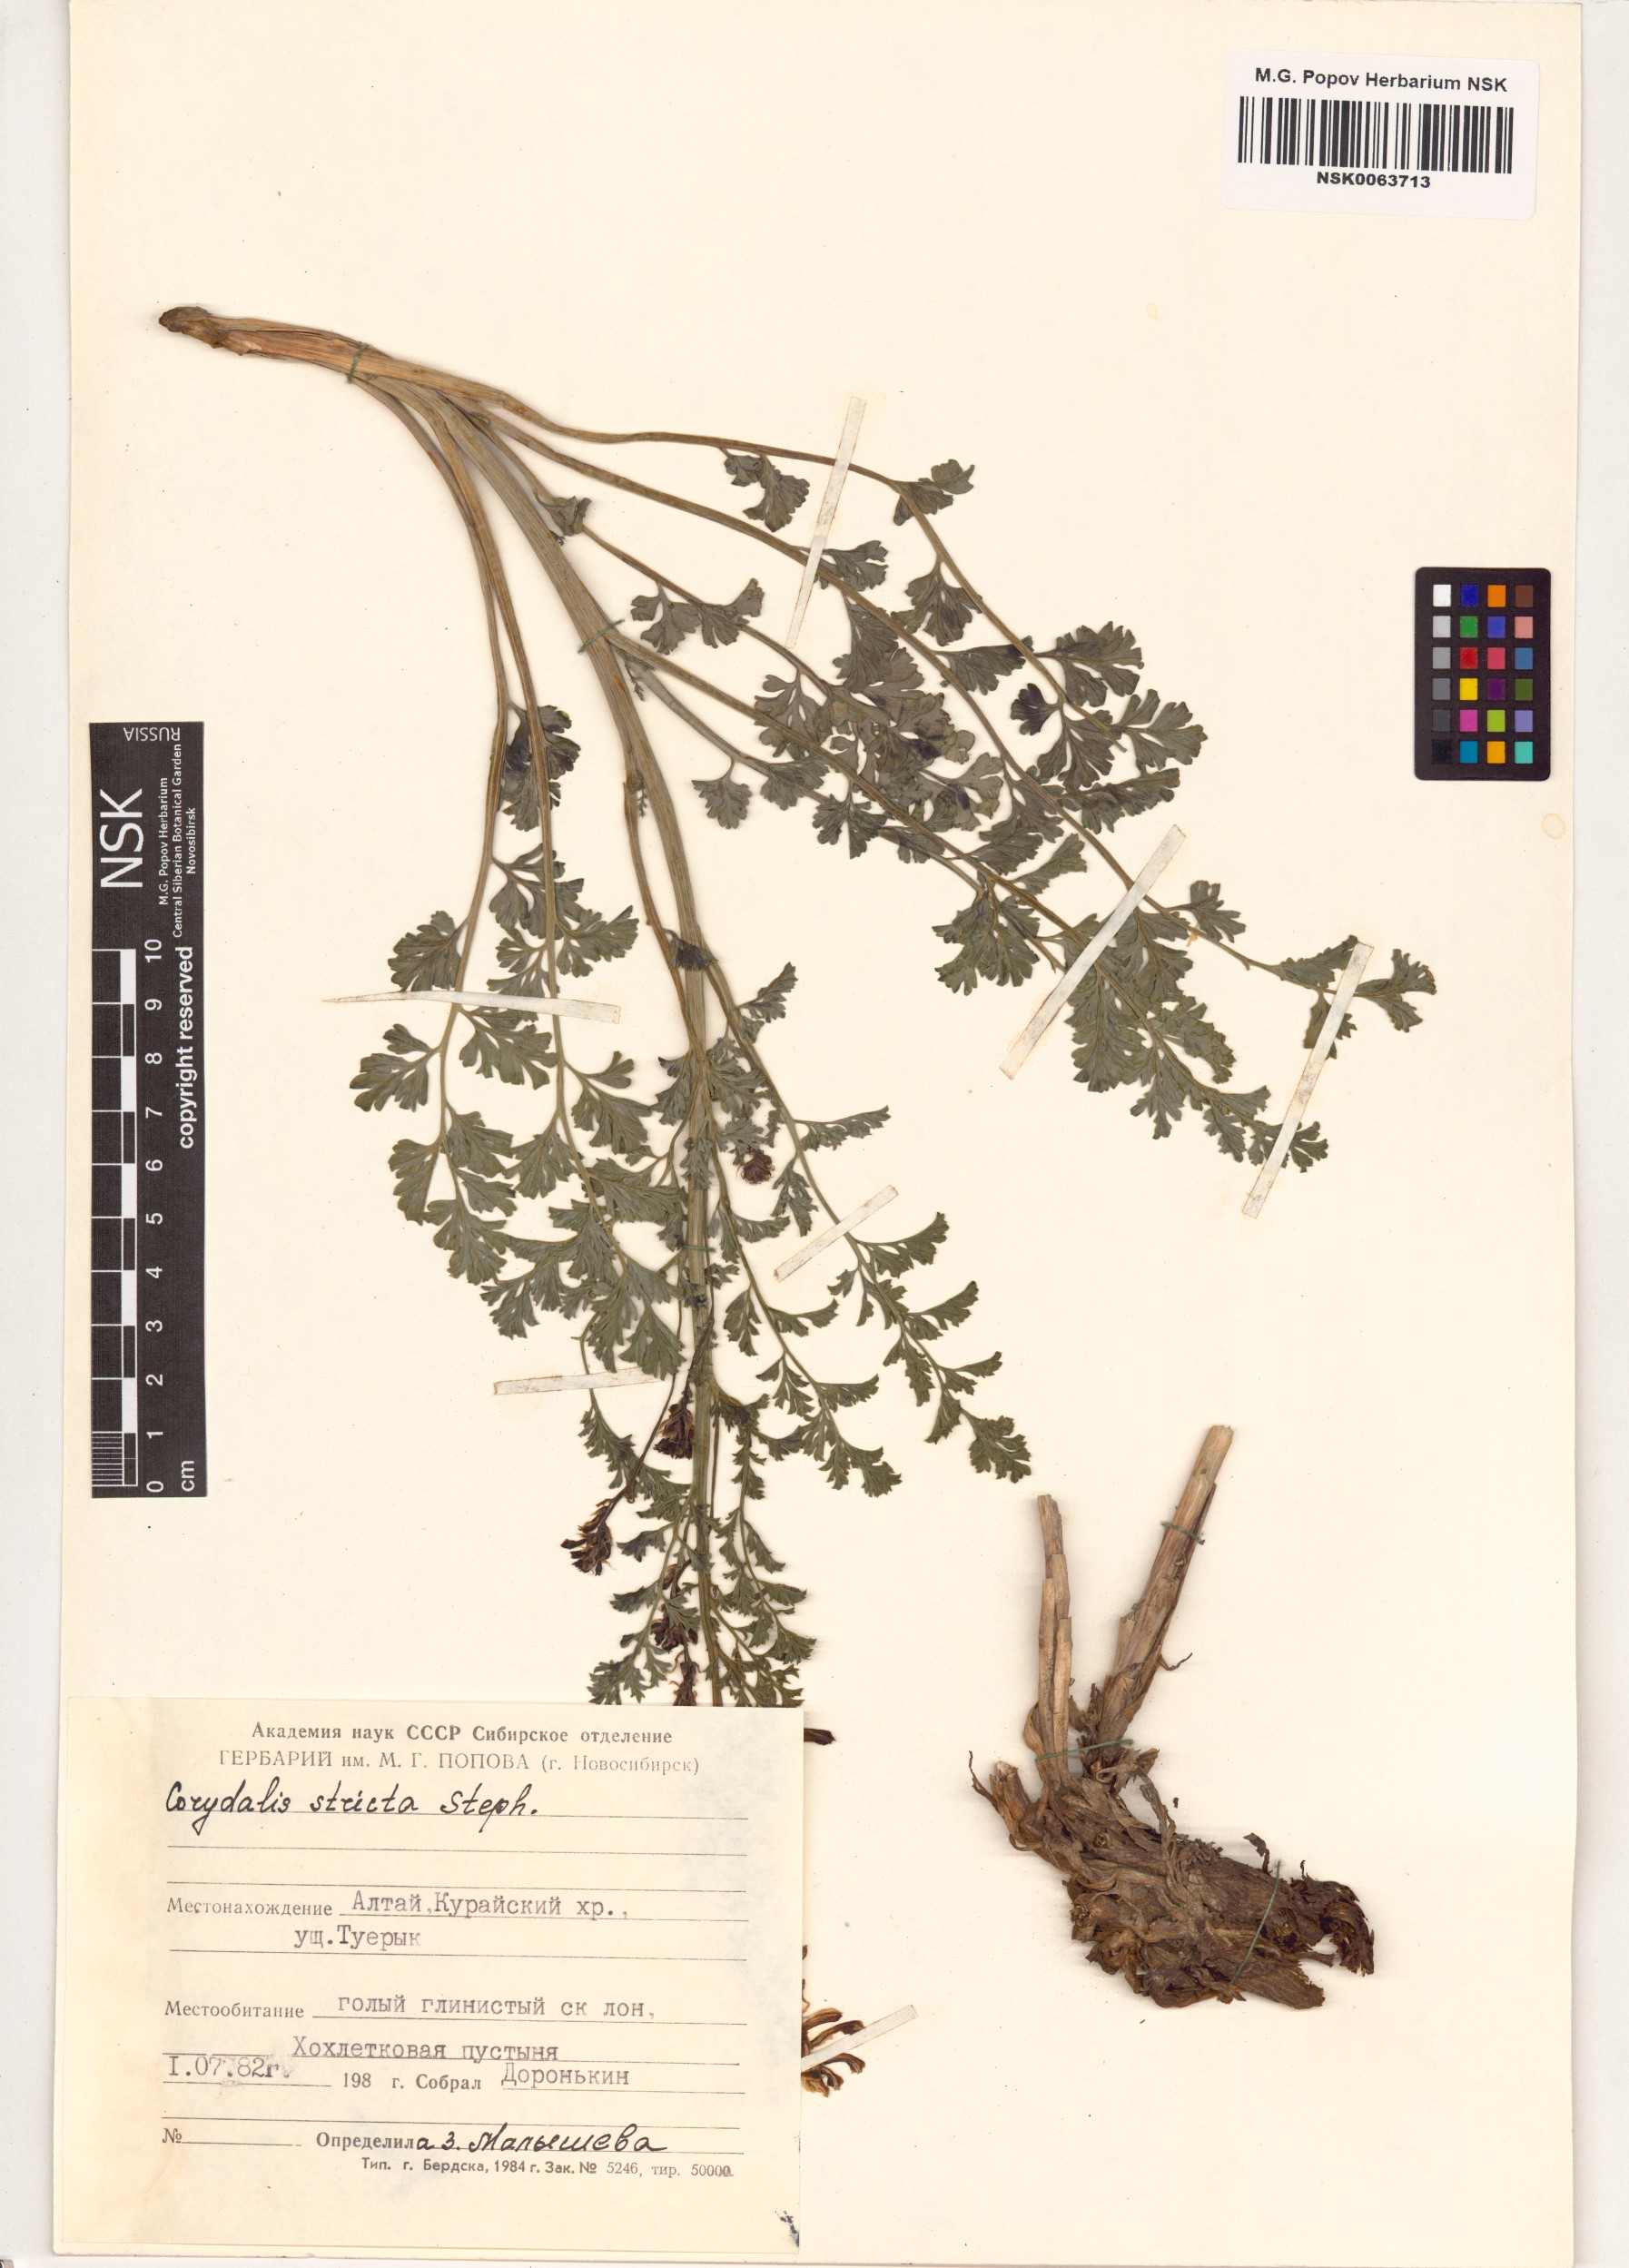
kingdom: Plantae
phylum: Tracheophyta
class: Magnoliopsida
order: Ranunculales
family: Papaveraceae
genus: Corydalis
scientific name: Corydalis stricta
